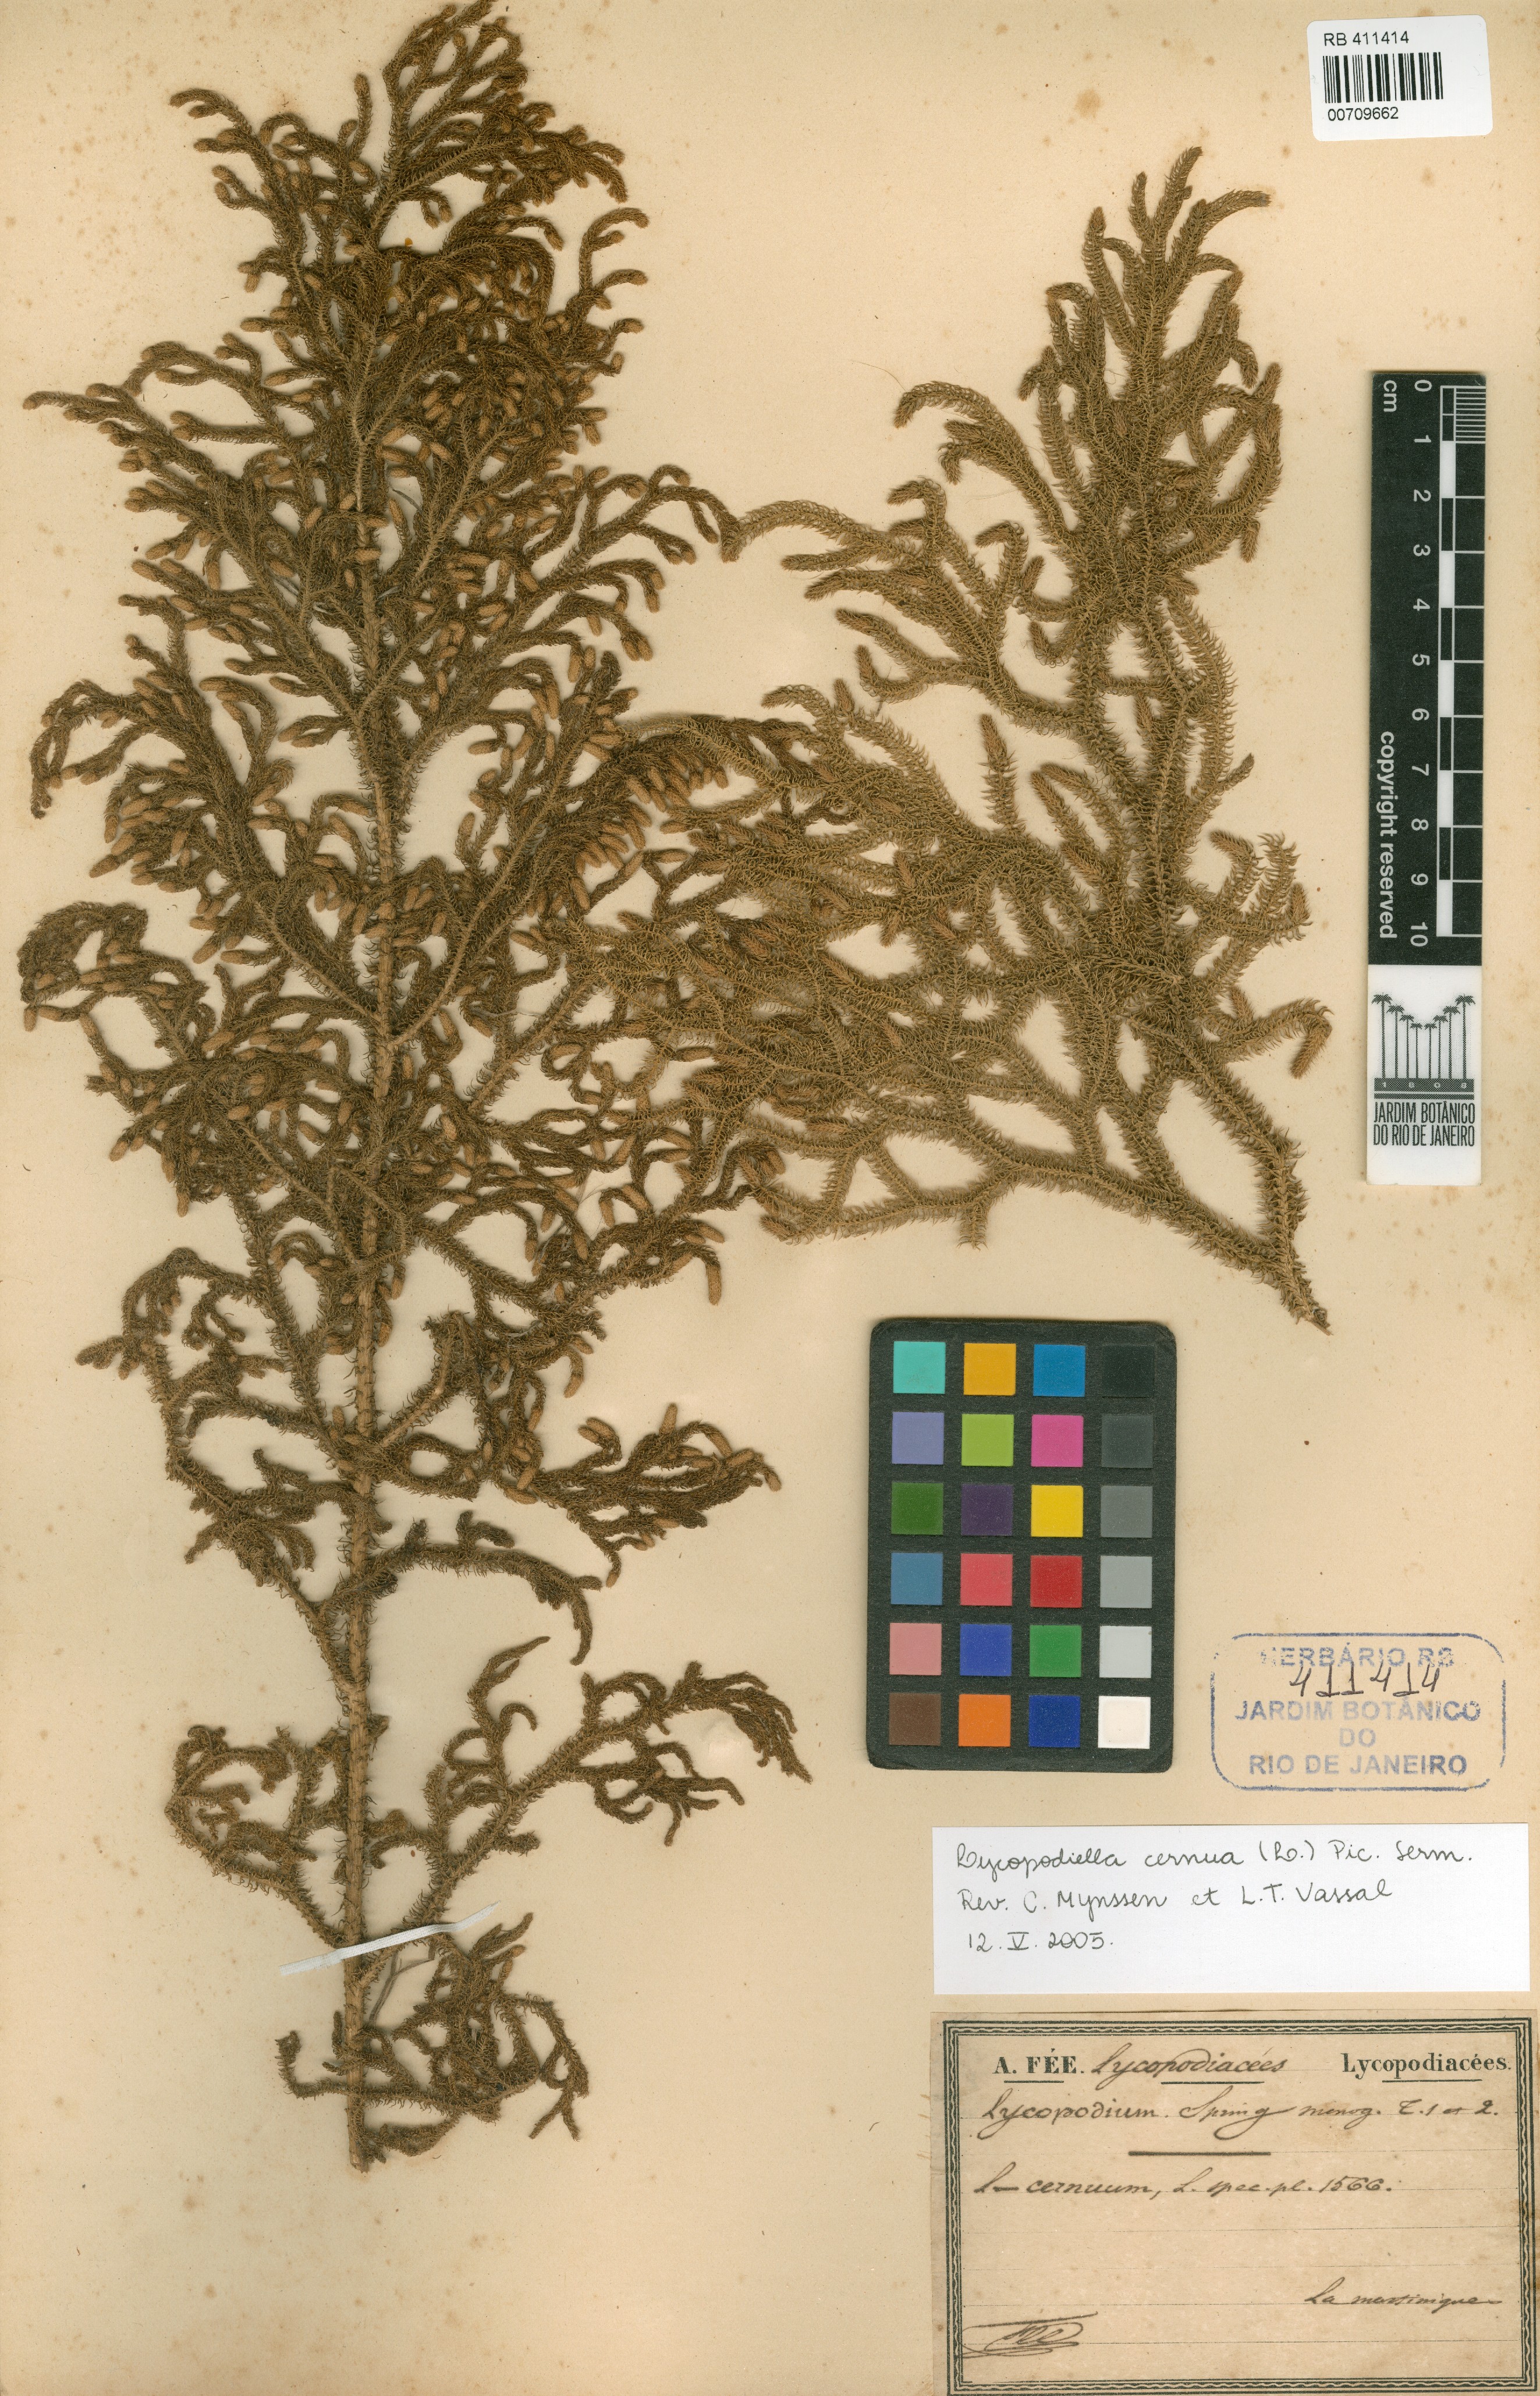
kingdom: Plantae
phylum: Tracheophyta
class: Lycopodiopsida
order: Lycopodiales
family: Lycopodiaceae
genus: Palhinhaea
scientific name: Palhinhaea cernua
